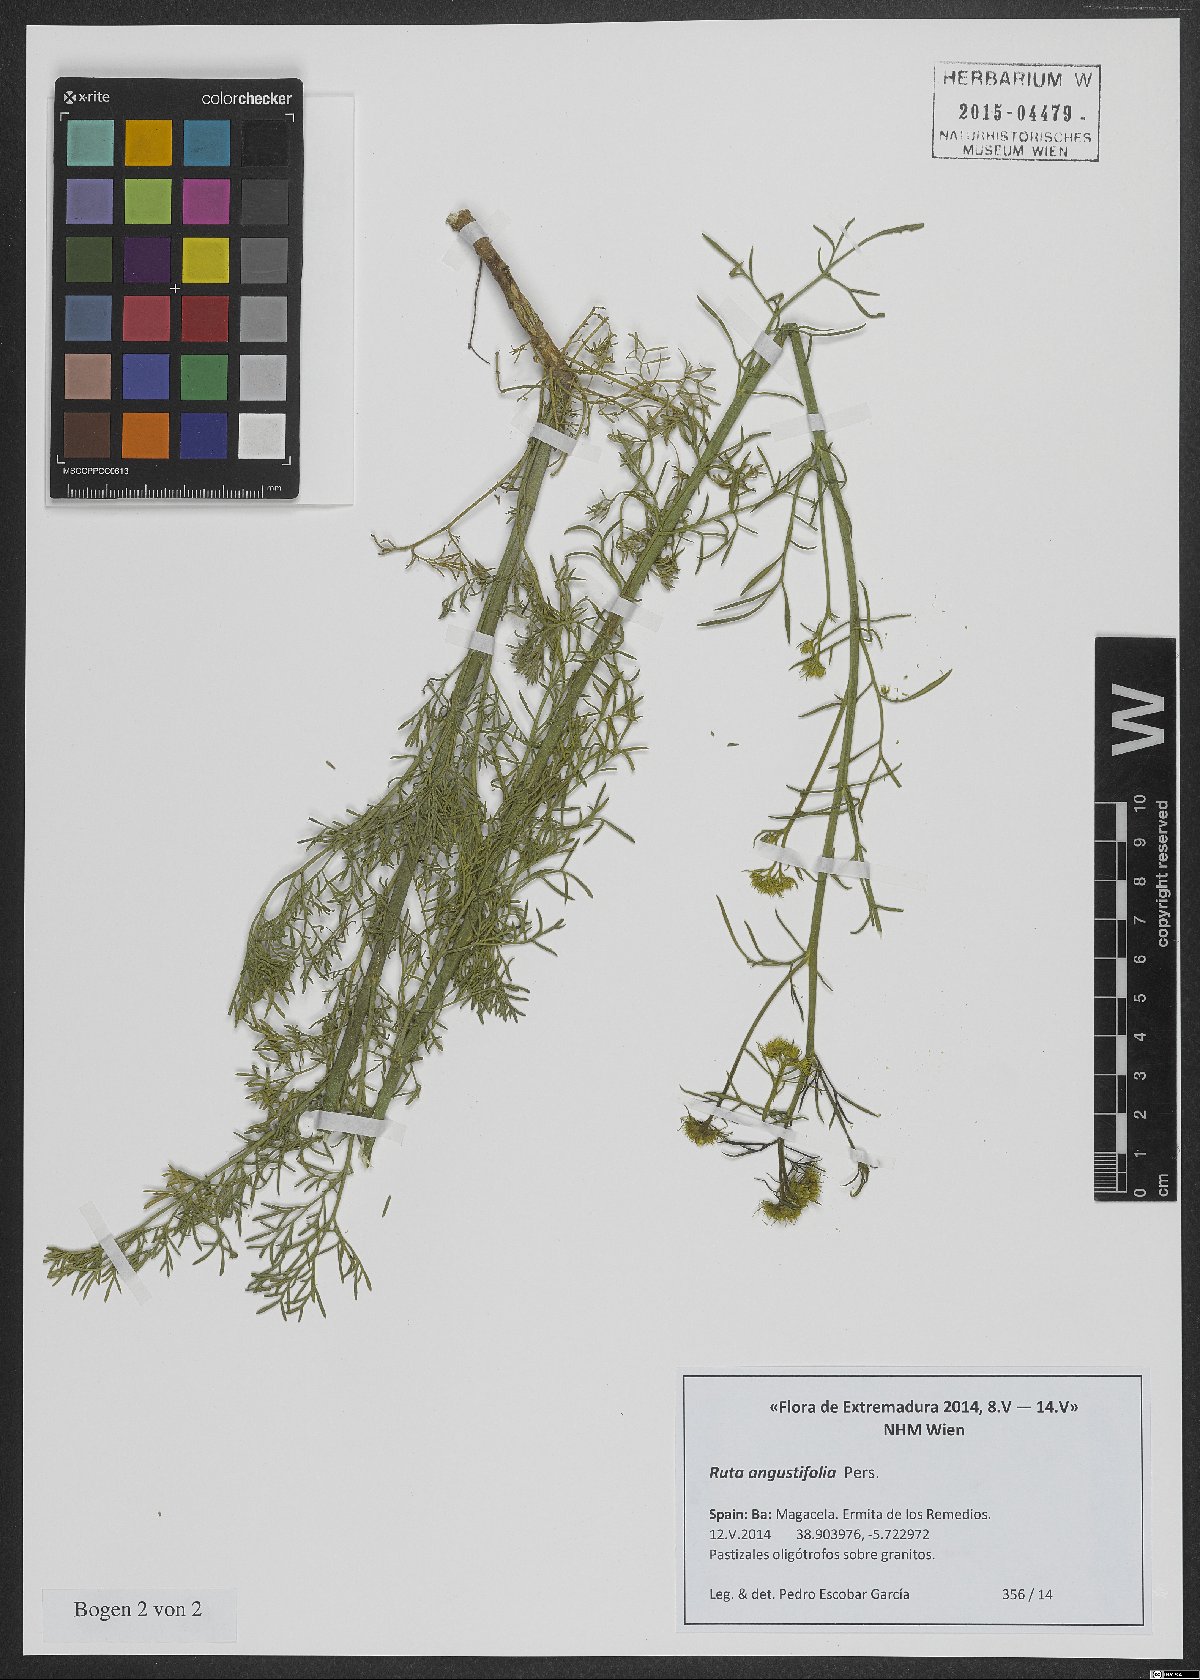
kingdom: Plantae
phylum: Tracheophyta
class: Magnoliopsida
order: Sapindales
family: Rutaceae
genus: Ruta
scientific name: Ruta angustifolia
